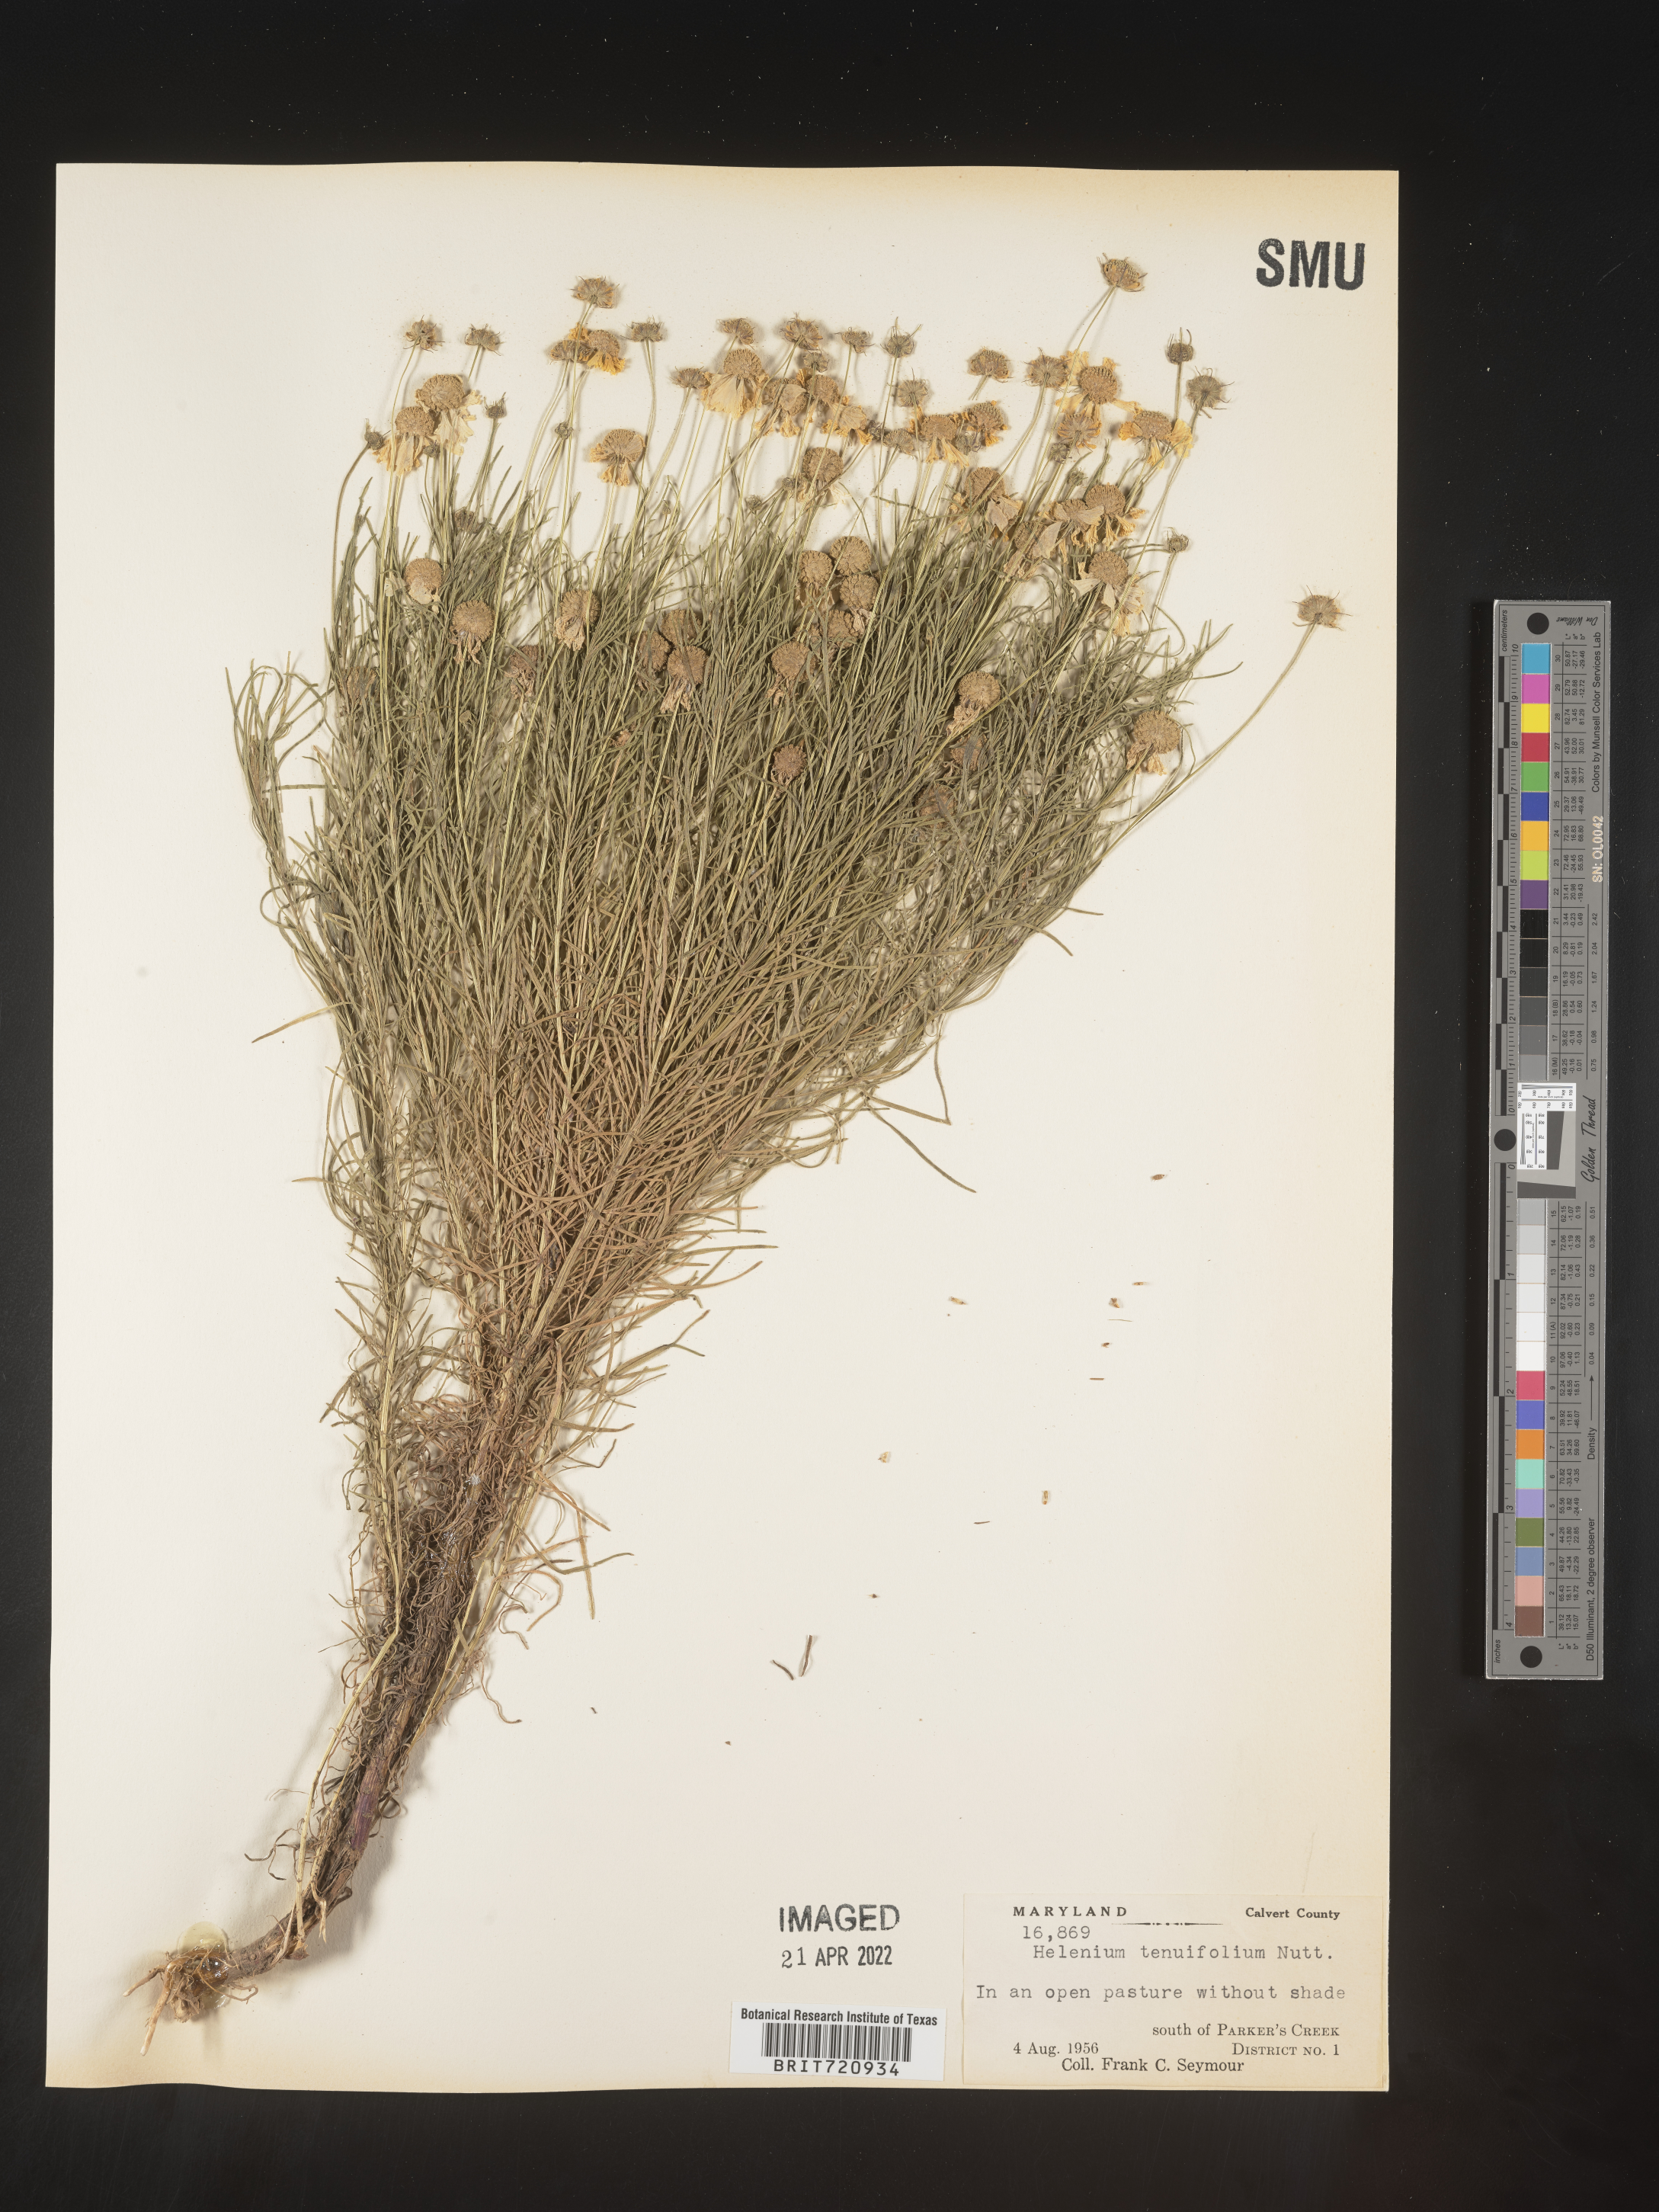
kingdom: Plantae
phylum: Tracheophyta
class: Magnoliopsida
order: Asterales
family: Asteraceae
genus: Helenium
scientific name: Helenium amarum
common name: Bitter sneezeweed
